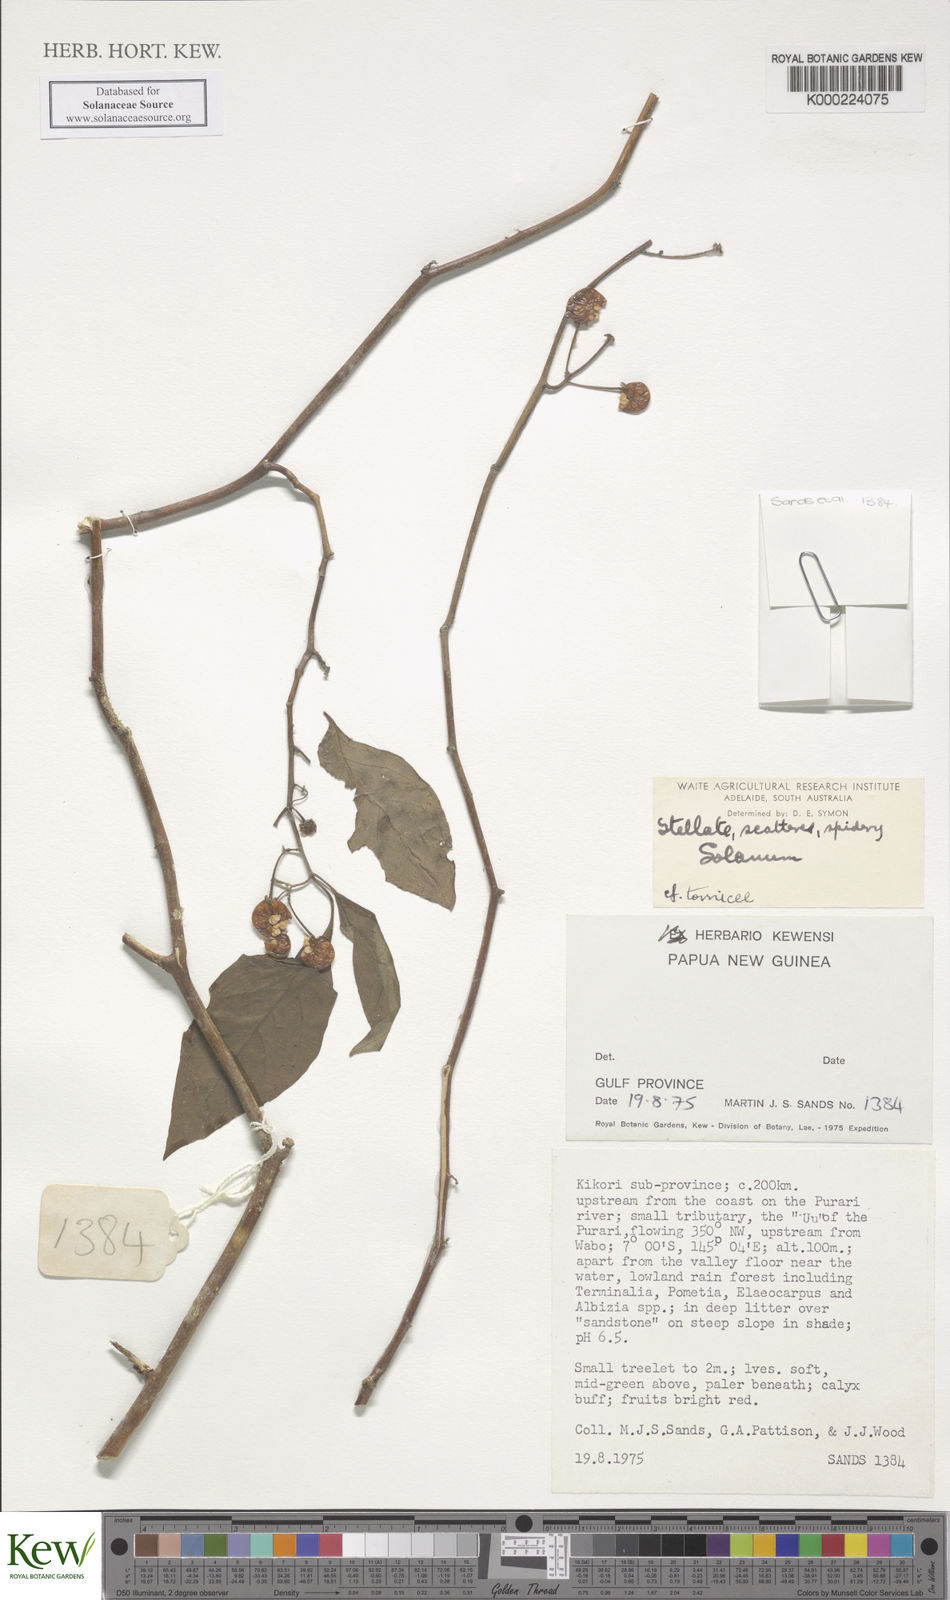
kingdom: Plantae
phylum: Tracheophyta
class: Magnoliopsida
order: Solanales
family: Solanaceae
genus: Solanum
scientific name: Solanum
